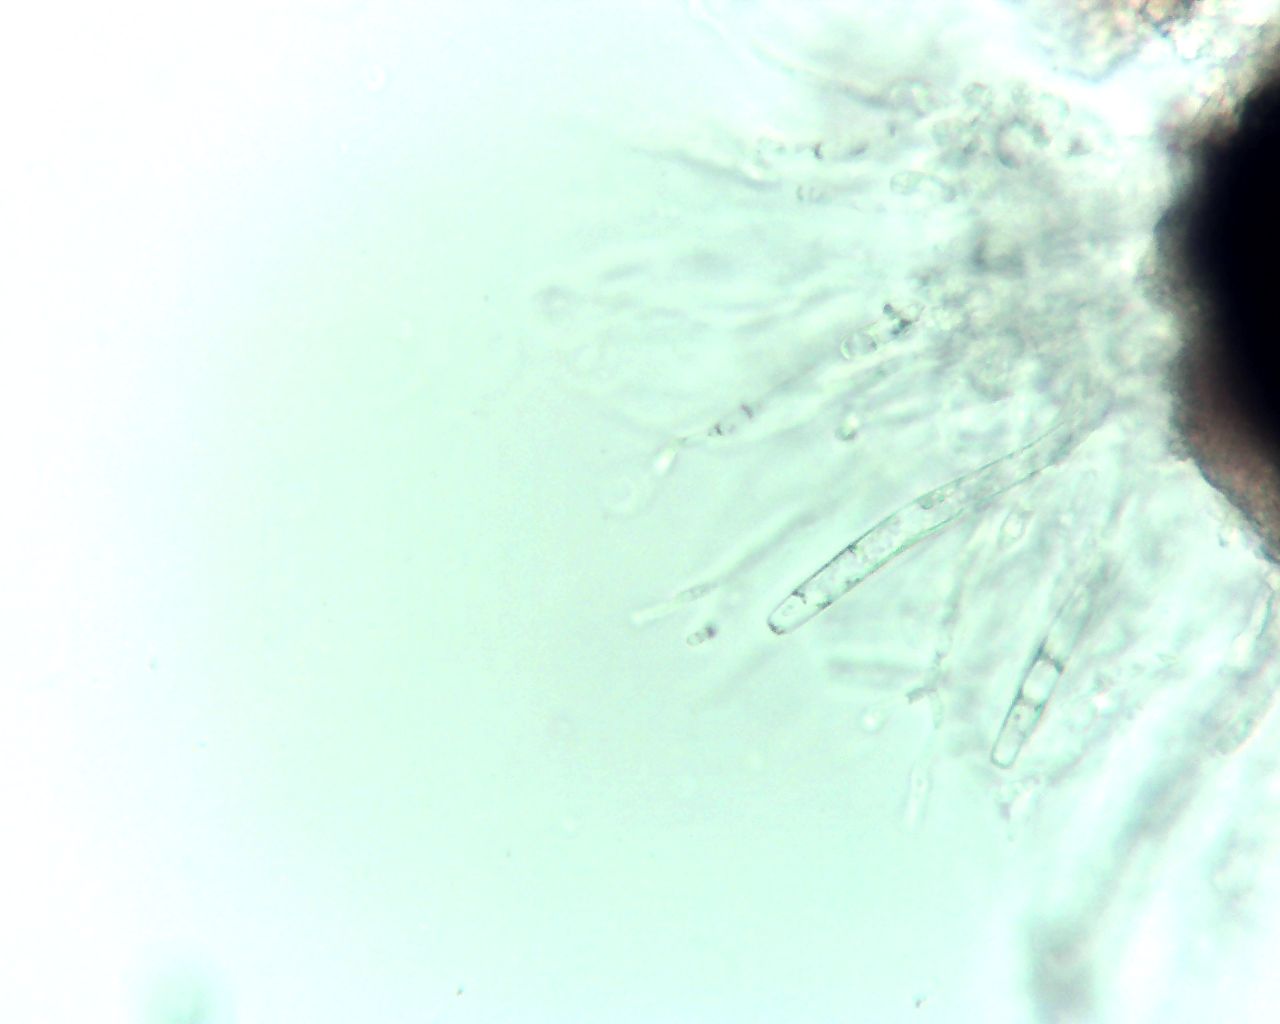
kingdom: Fungi
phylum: Ascomycota
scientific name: Ascomycota
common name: sæksvampe
